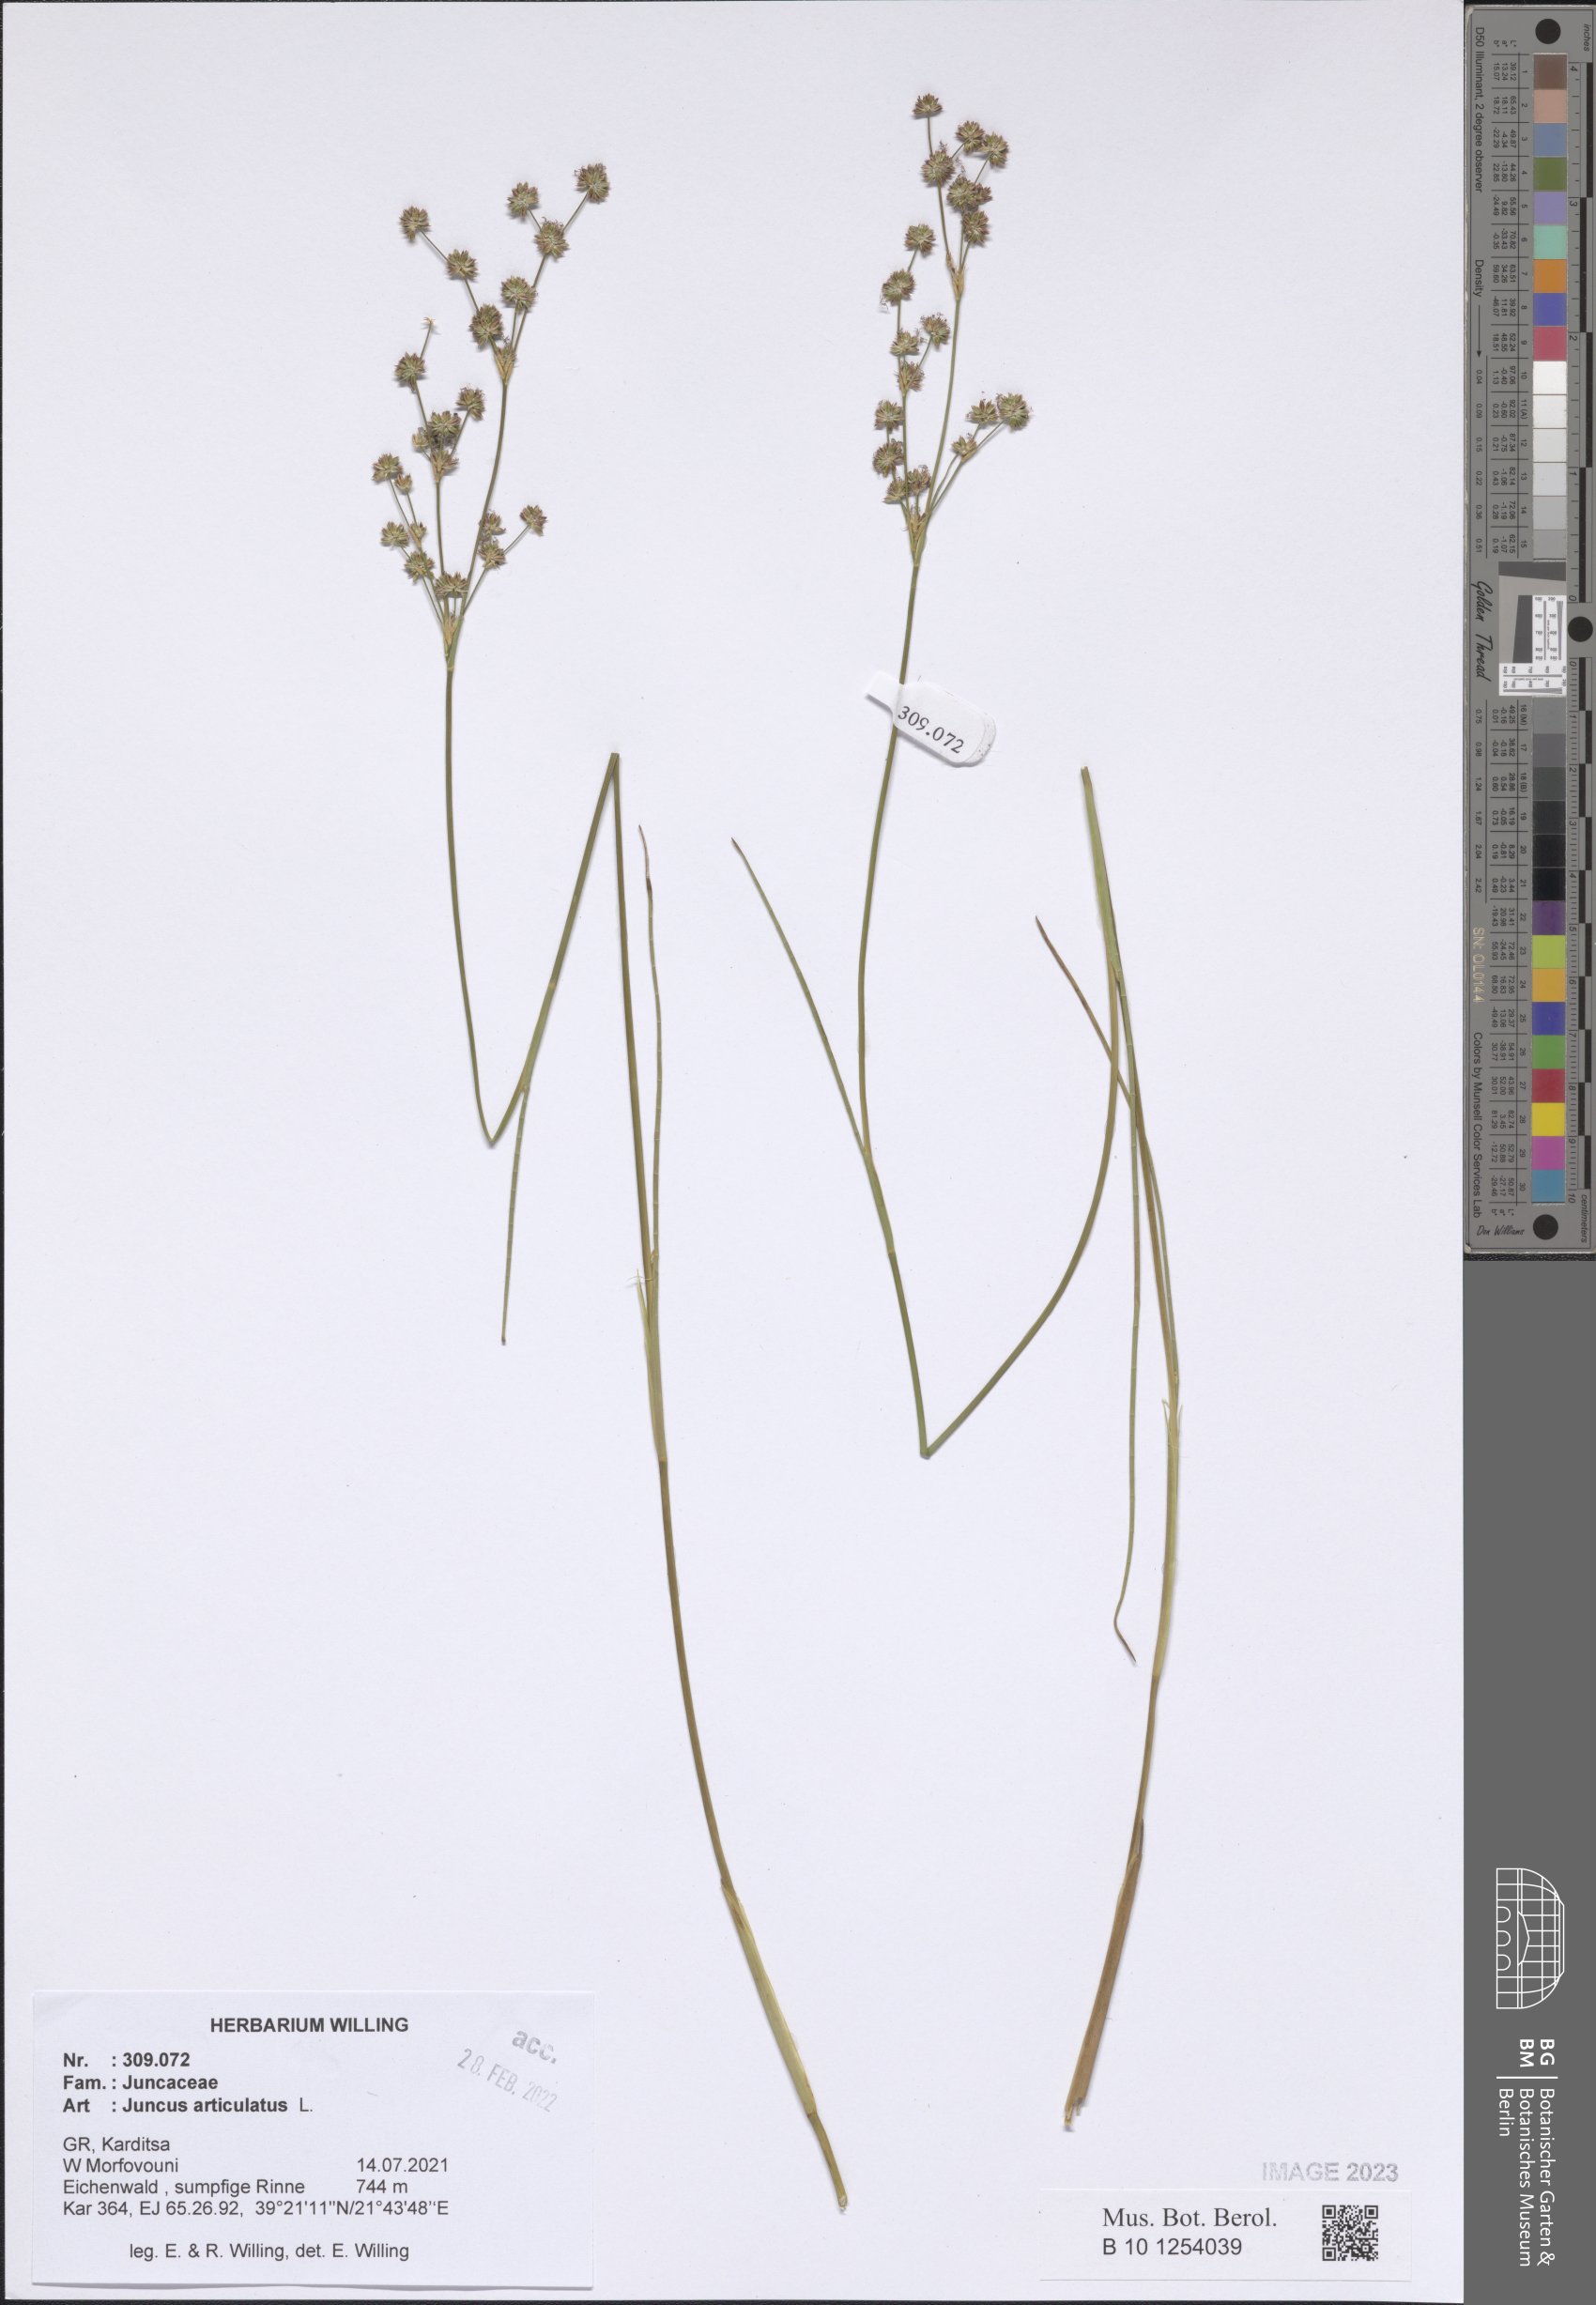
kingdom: Plantae
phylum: Tracheophyta
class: Liliopsida
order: Poales
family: Juncaceae
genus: Juncus
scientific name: Juncus articulatus
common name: Jointed rush
